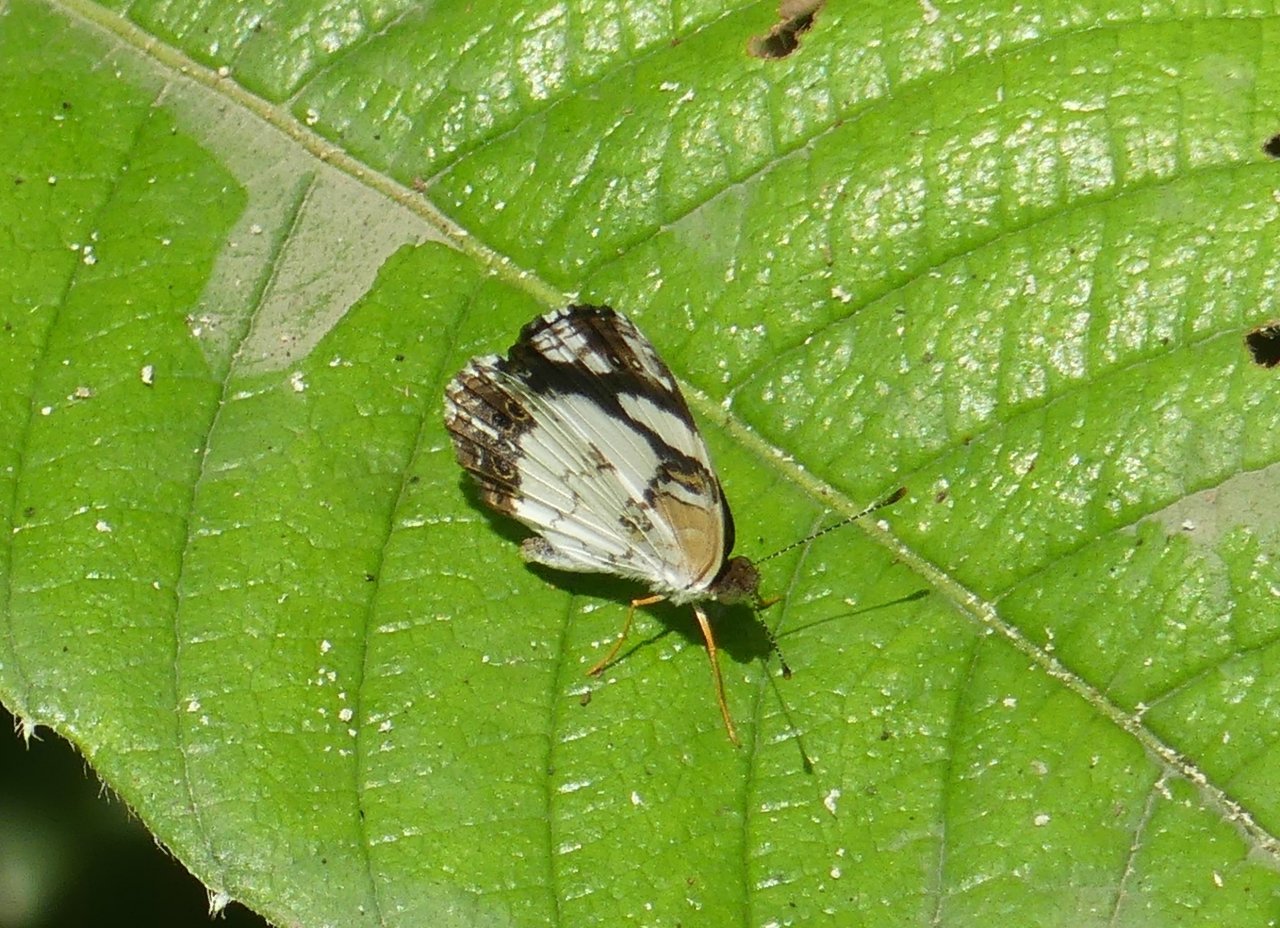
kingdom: Animalia
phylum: Arthropoda
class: Insecta
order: Lepidoptera
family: Nymphalidae
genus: Janatella
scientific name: Janatella leucodesma
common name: Whitened Crescent
